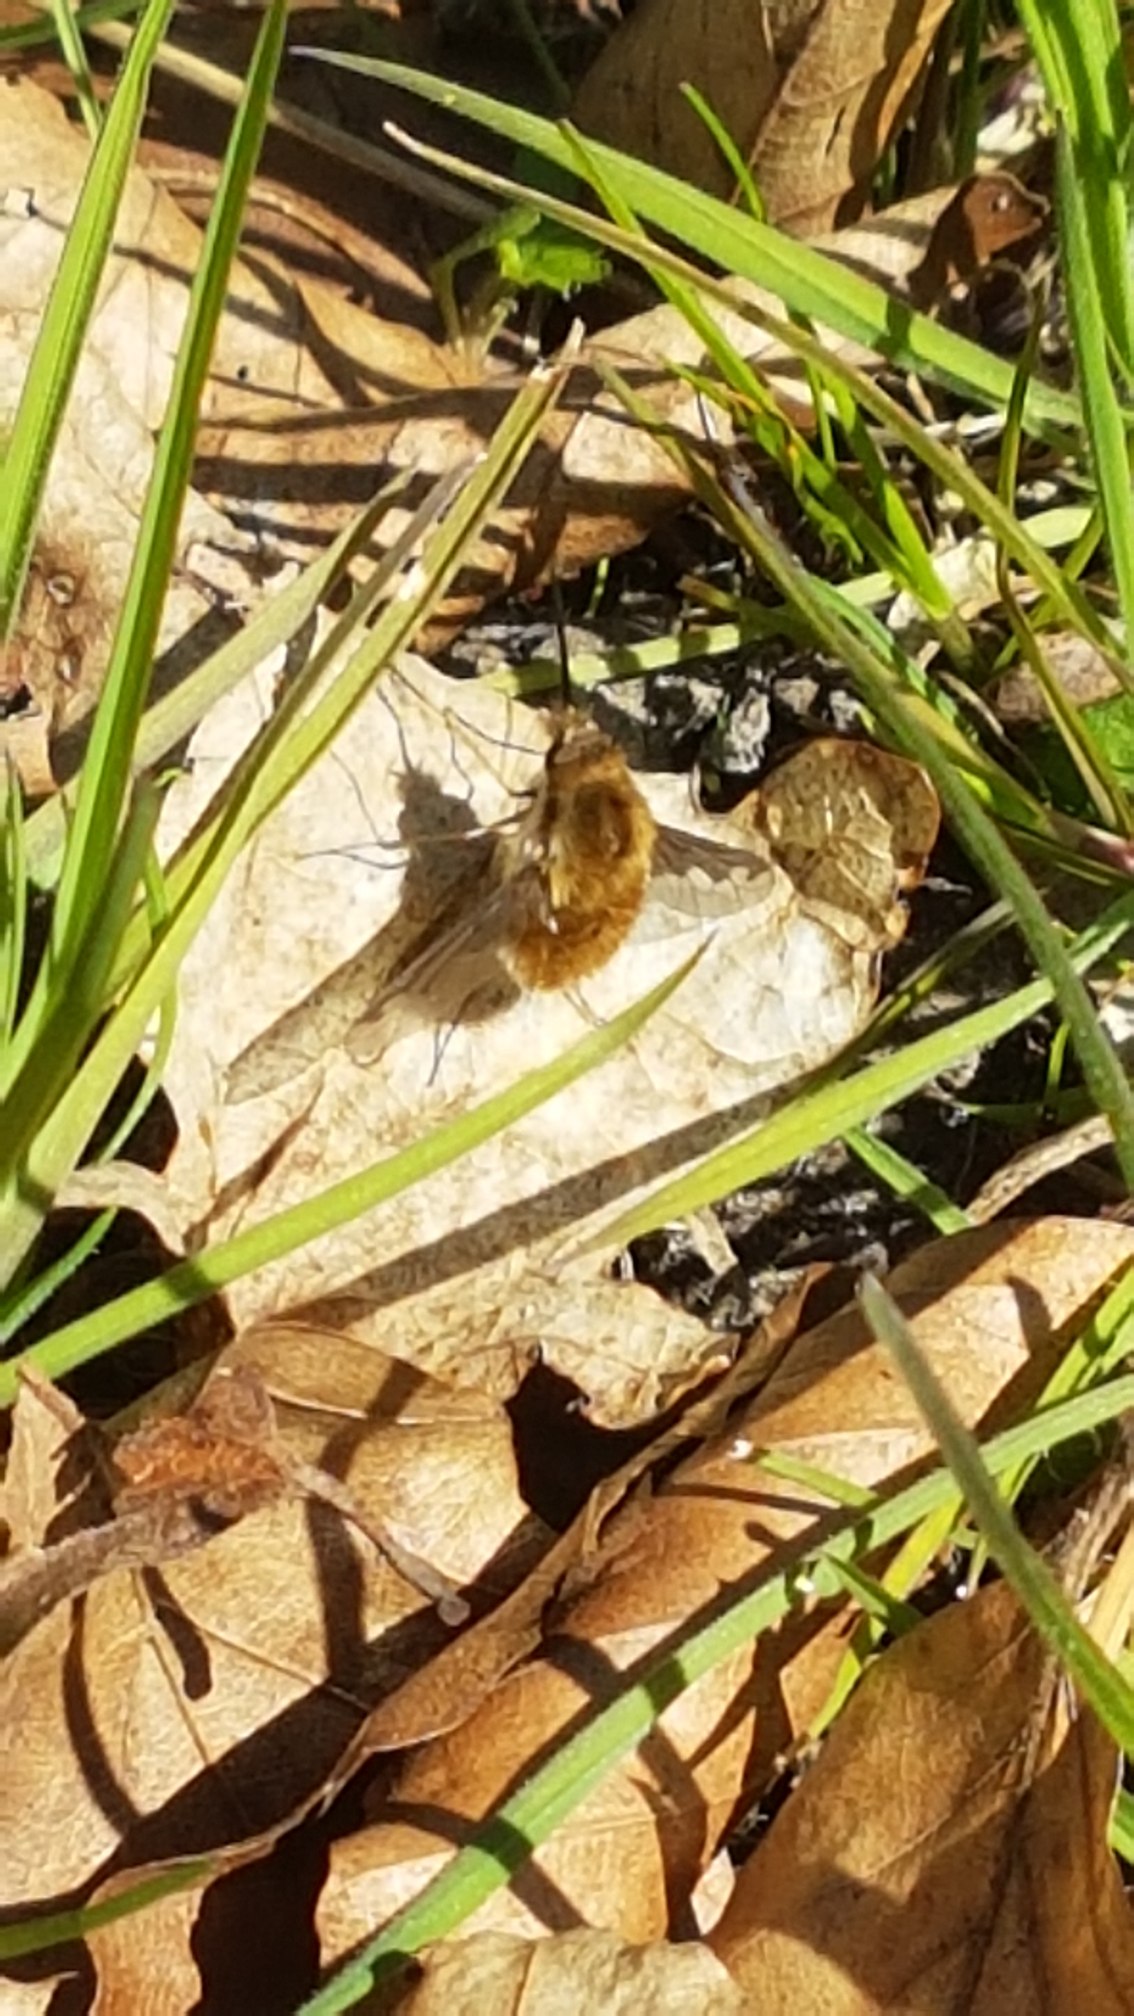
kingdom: Animalia
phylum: Arthropoda
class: Insecta
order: Diptera
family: Bombyliidae
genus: Bombylius
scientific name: Bombylius major
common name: Stor humleflue
